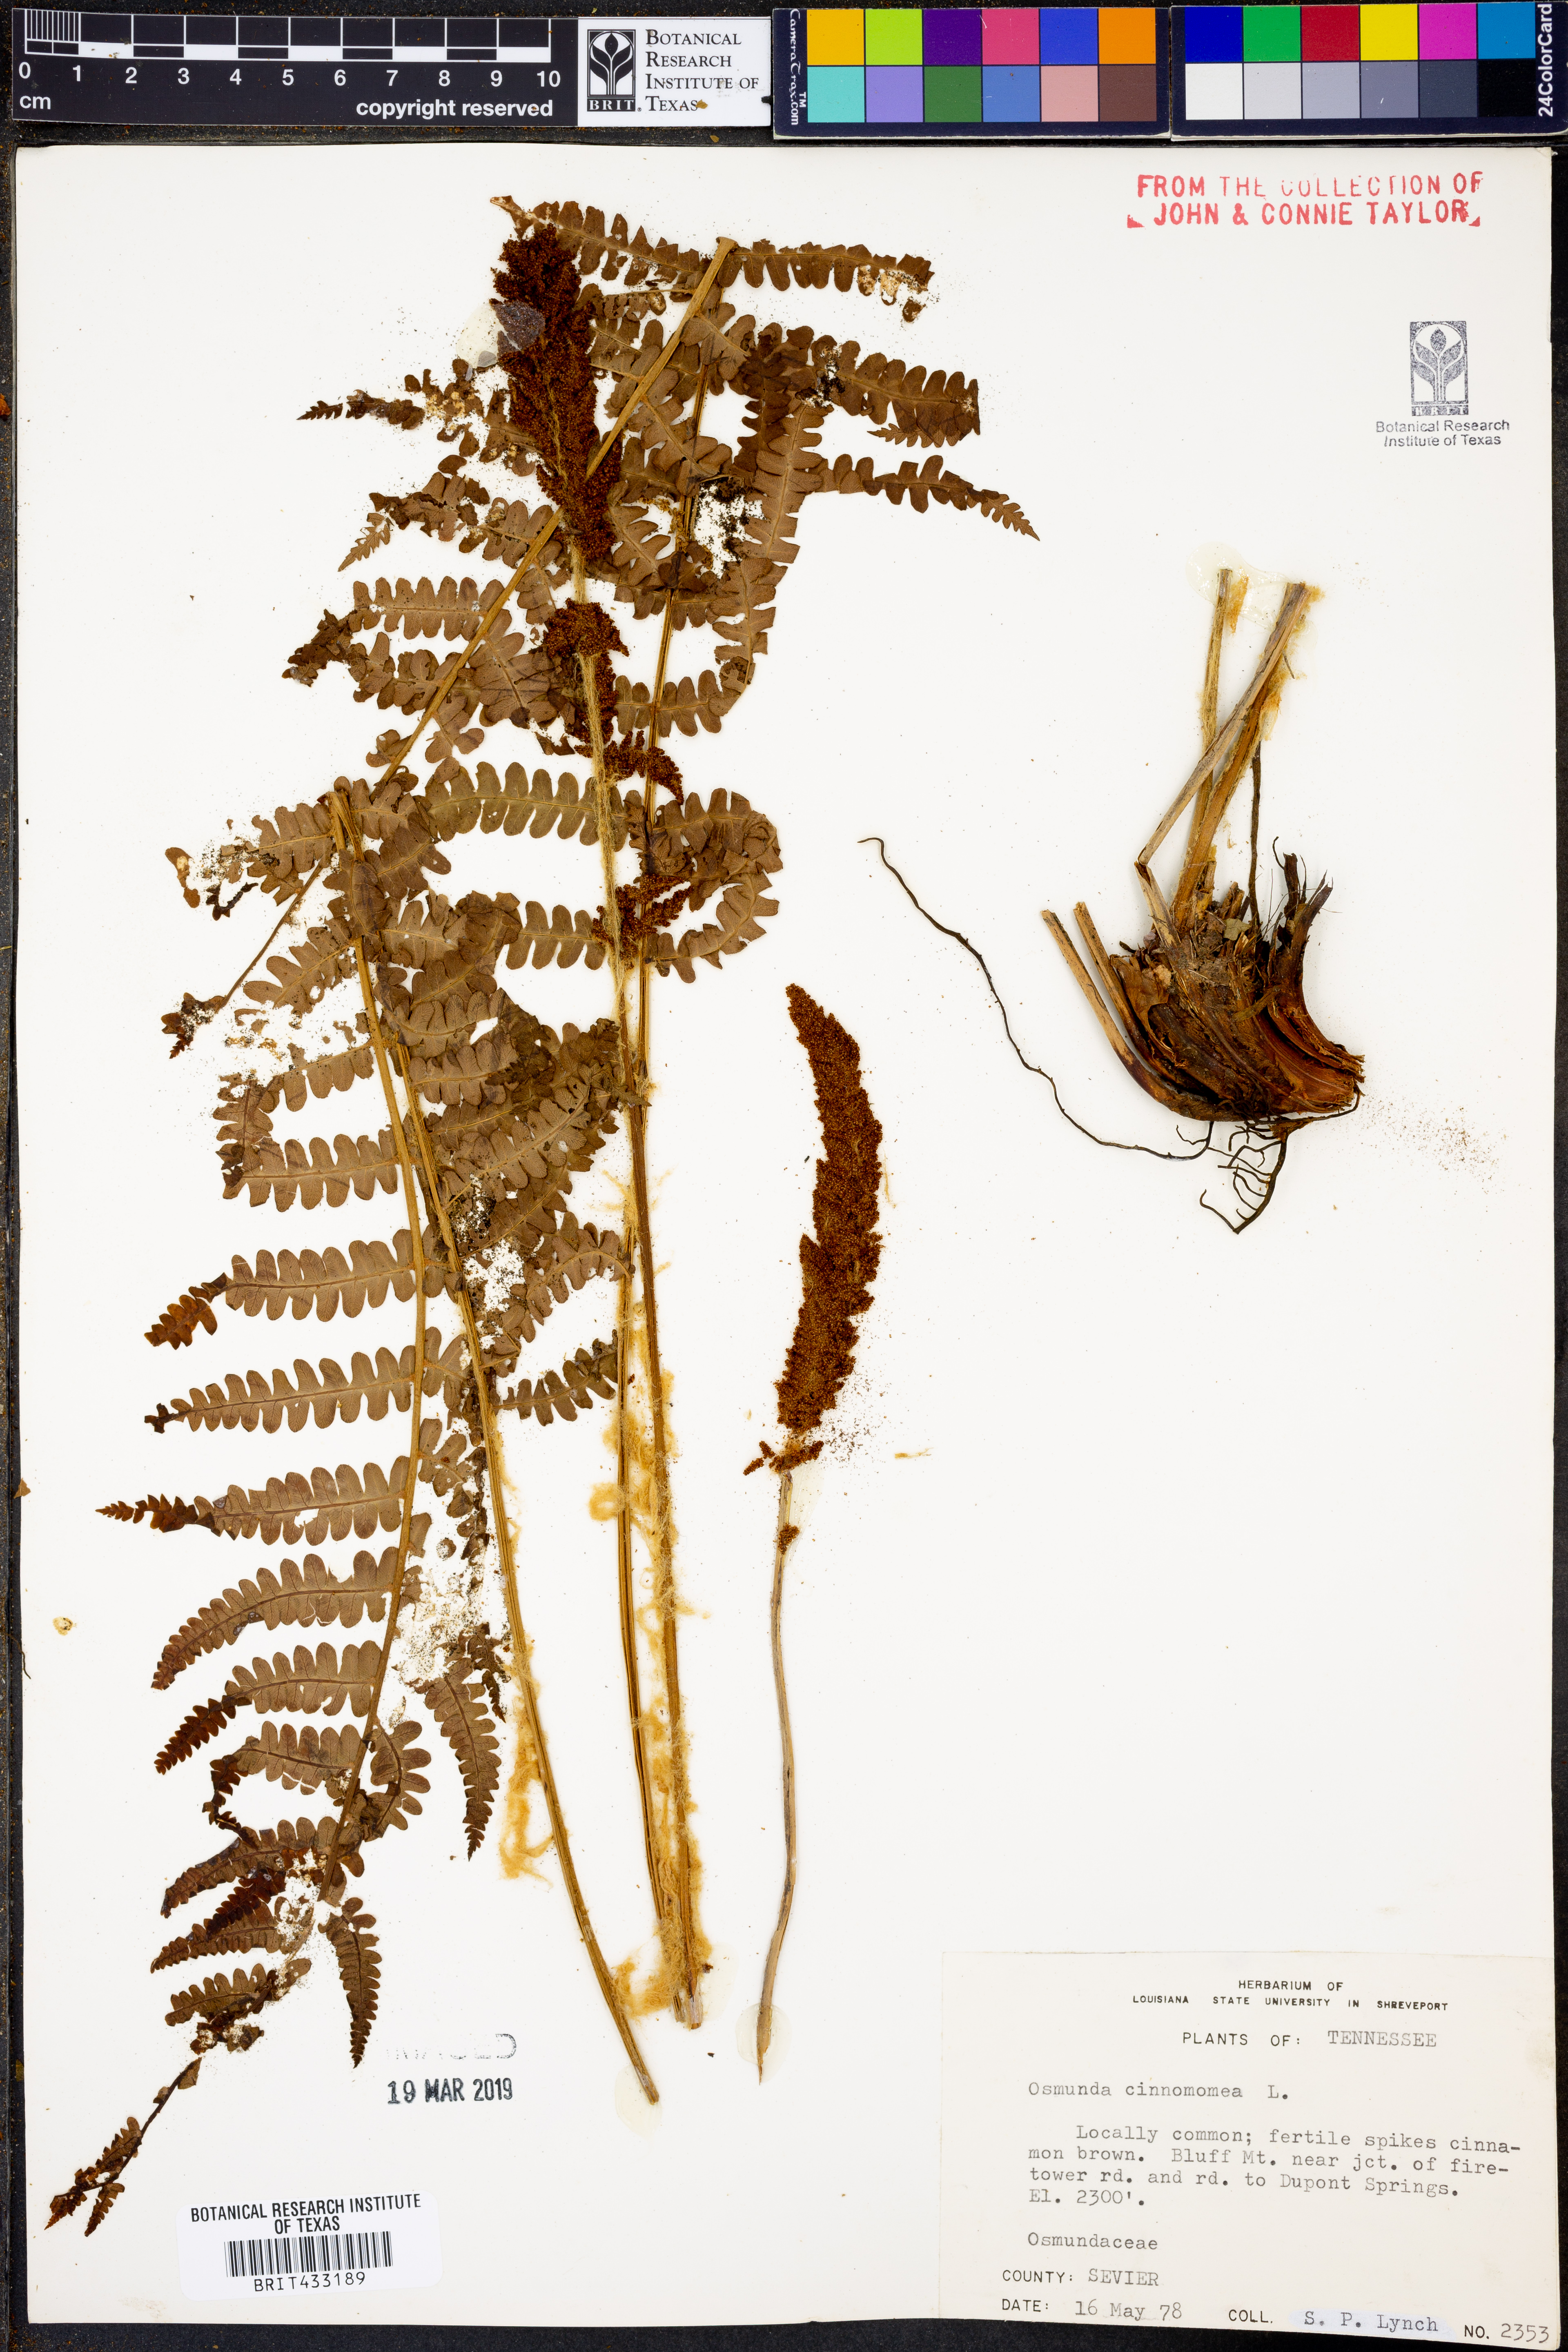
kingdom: Plantae
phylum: Tracheophyta
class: Polypodiopsida
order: Osmundales
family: Osmundaceae
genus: Osmundastrum
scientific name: Osmundastrum cinnamomeum
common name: Cinnamon fern
